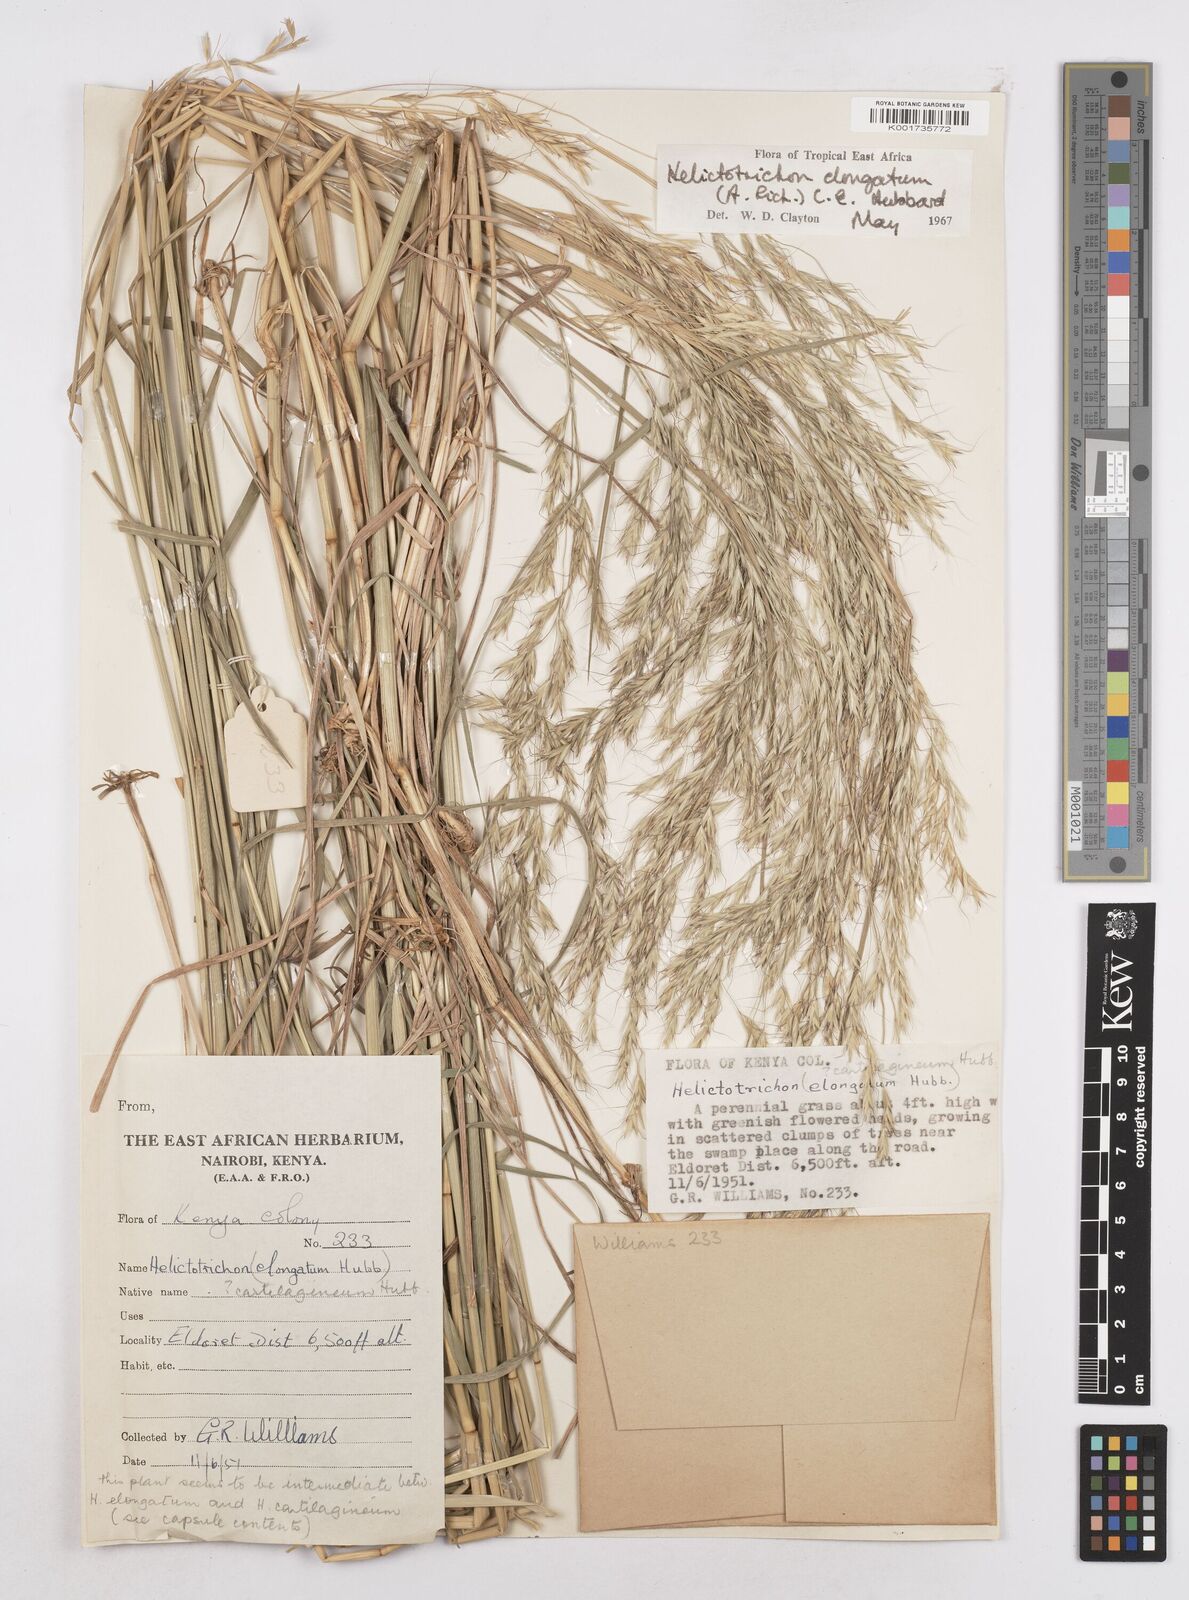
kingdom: Plantae
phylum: Tracheophyta
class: Liliopsida
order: Poales
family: Poaceae
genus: Trisetopsis
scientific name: Trisetopsis elongata
